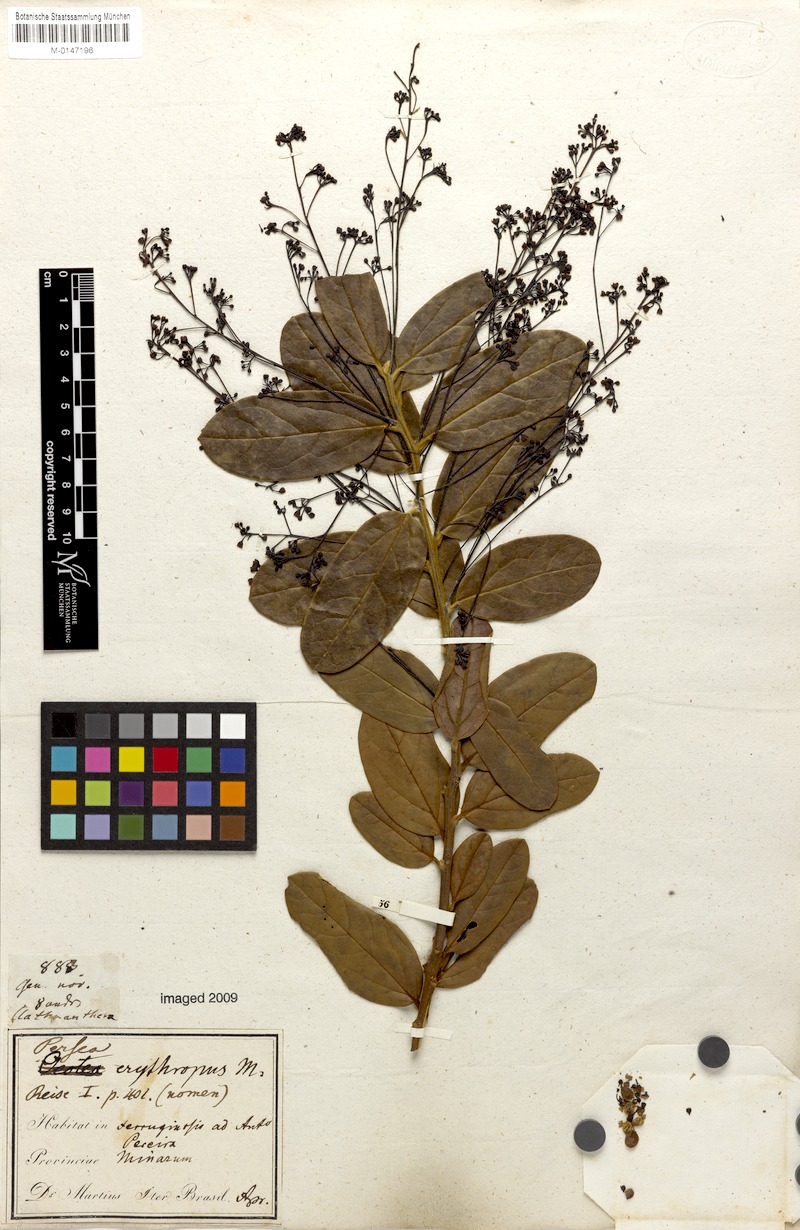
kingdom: Plantae
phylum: Tracheophyta
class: Magnoliopsida
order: Laurales
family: Lauraceae
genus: Aiouea
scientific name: Aiouea erythropus
